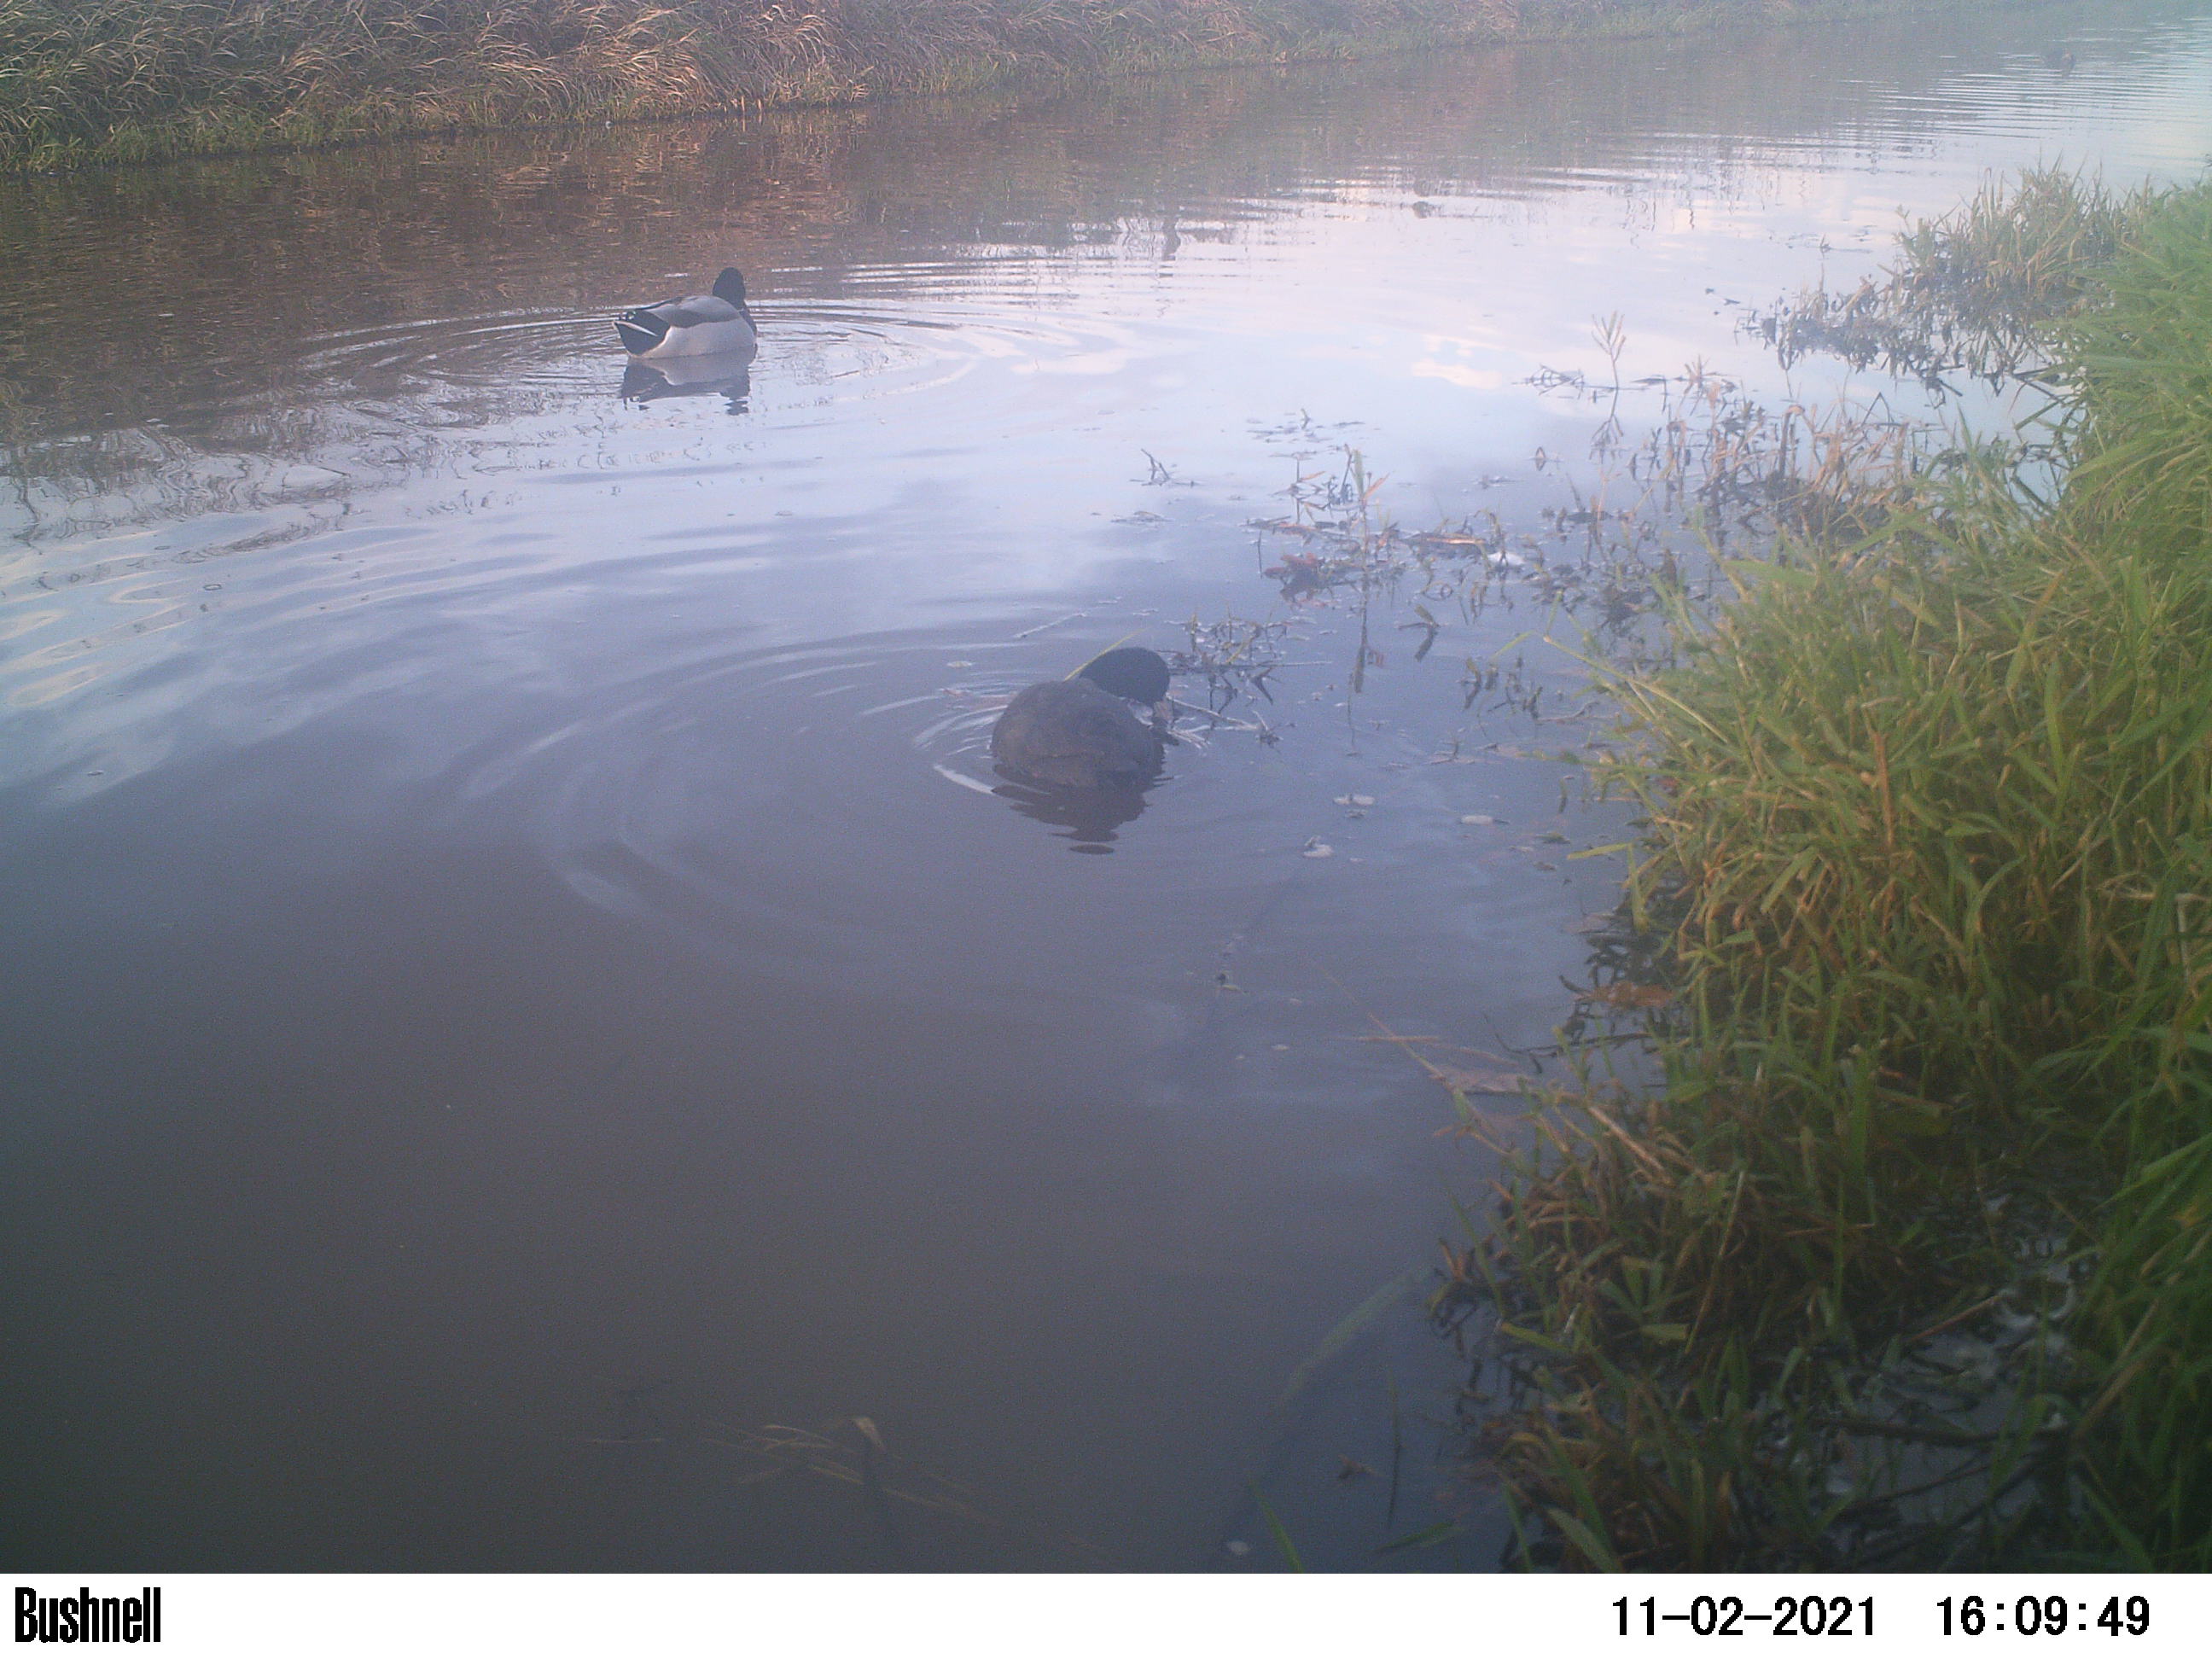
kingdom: Animalia
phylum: Chordata
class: Aves
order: Anseriformes
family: Anatidae
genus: Anas
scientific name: Anas
